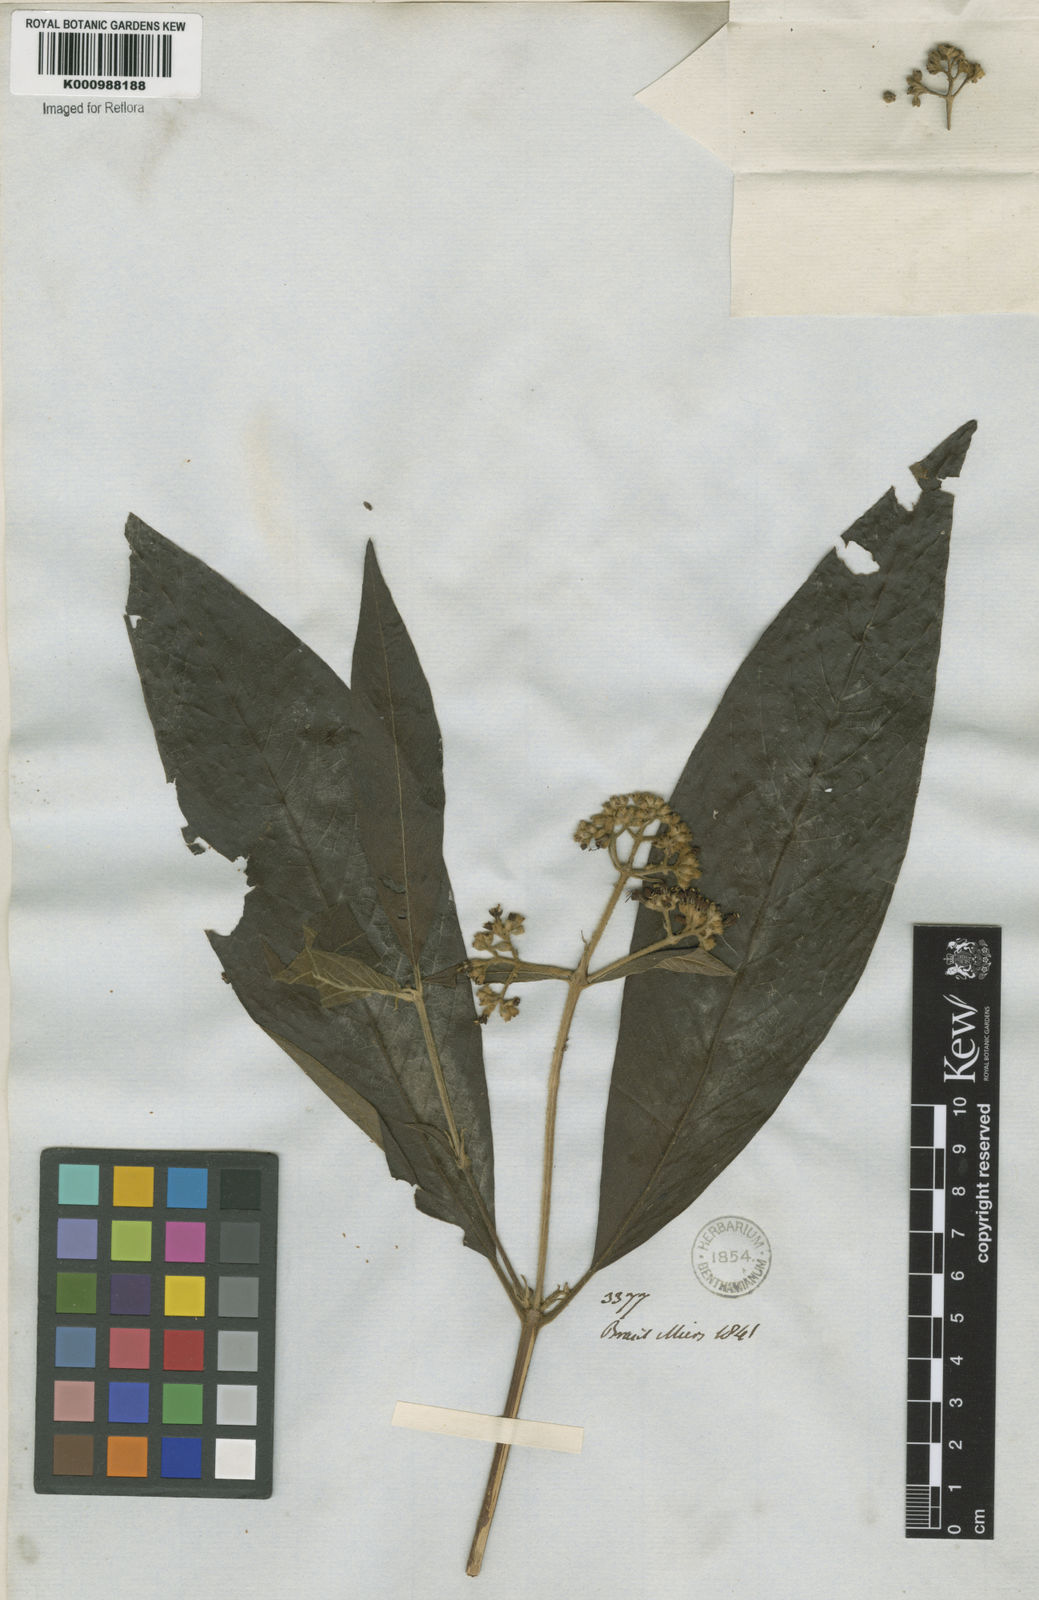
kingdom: Plantae
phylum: Tracheophyta
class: Magnoliopsida
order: Gentianales
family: Rubiaceae
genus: Bathysa
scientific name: Bathysa
